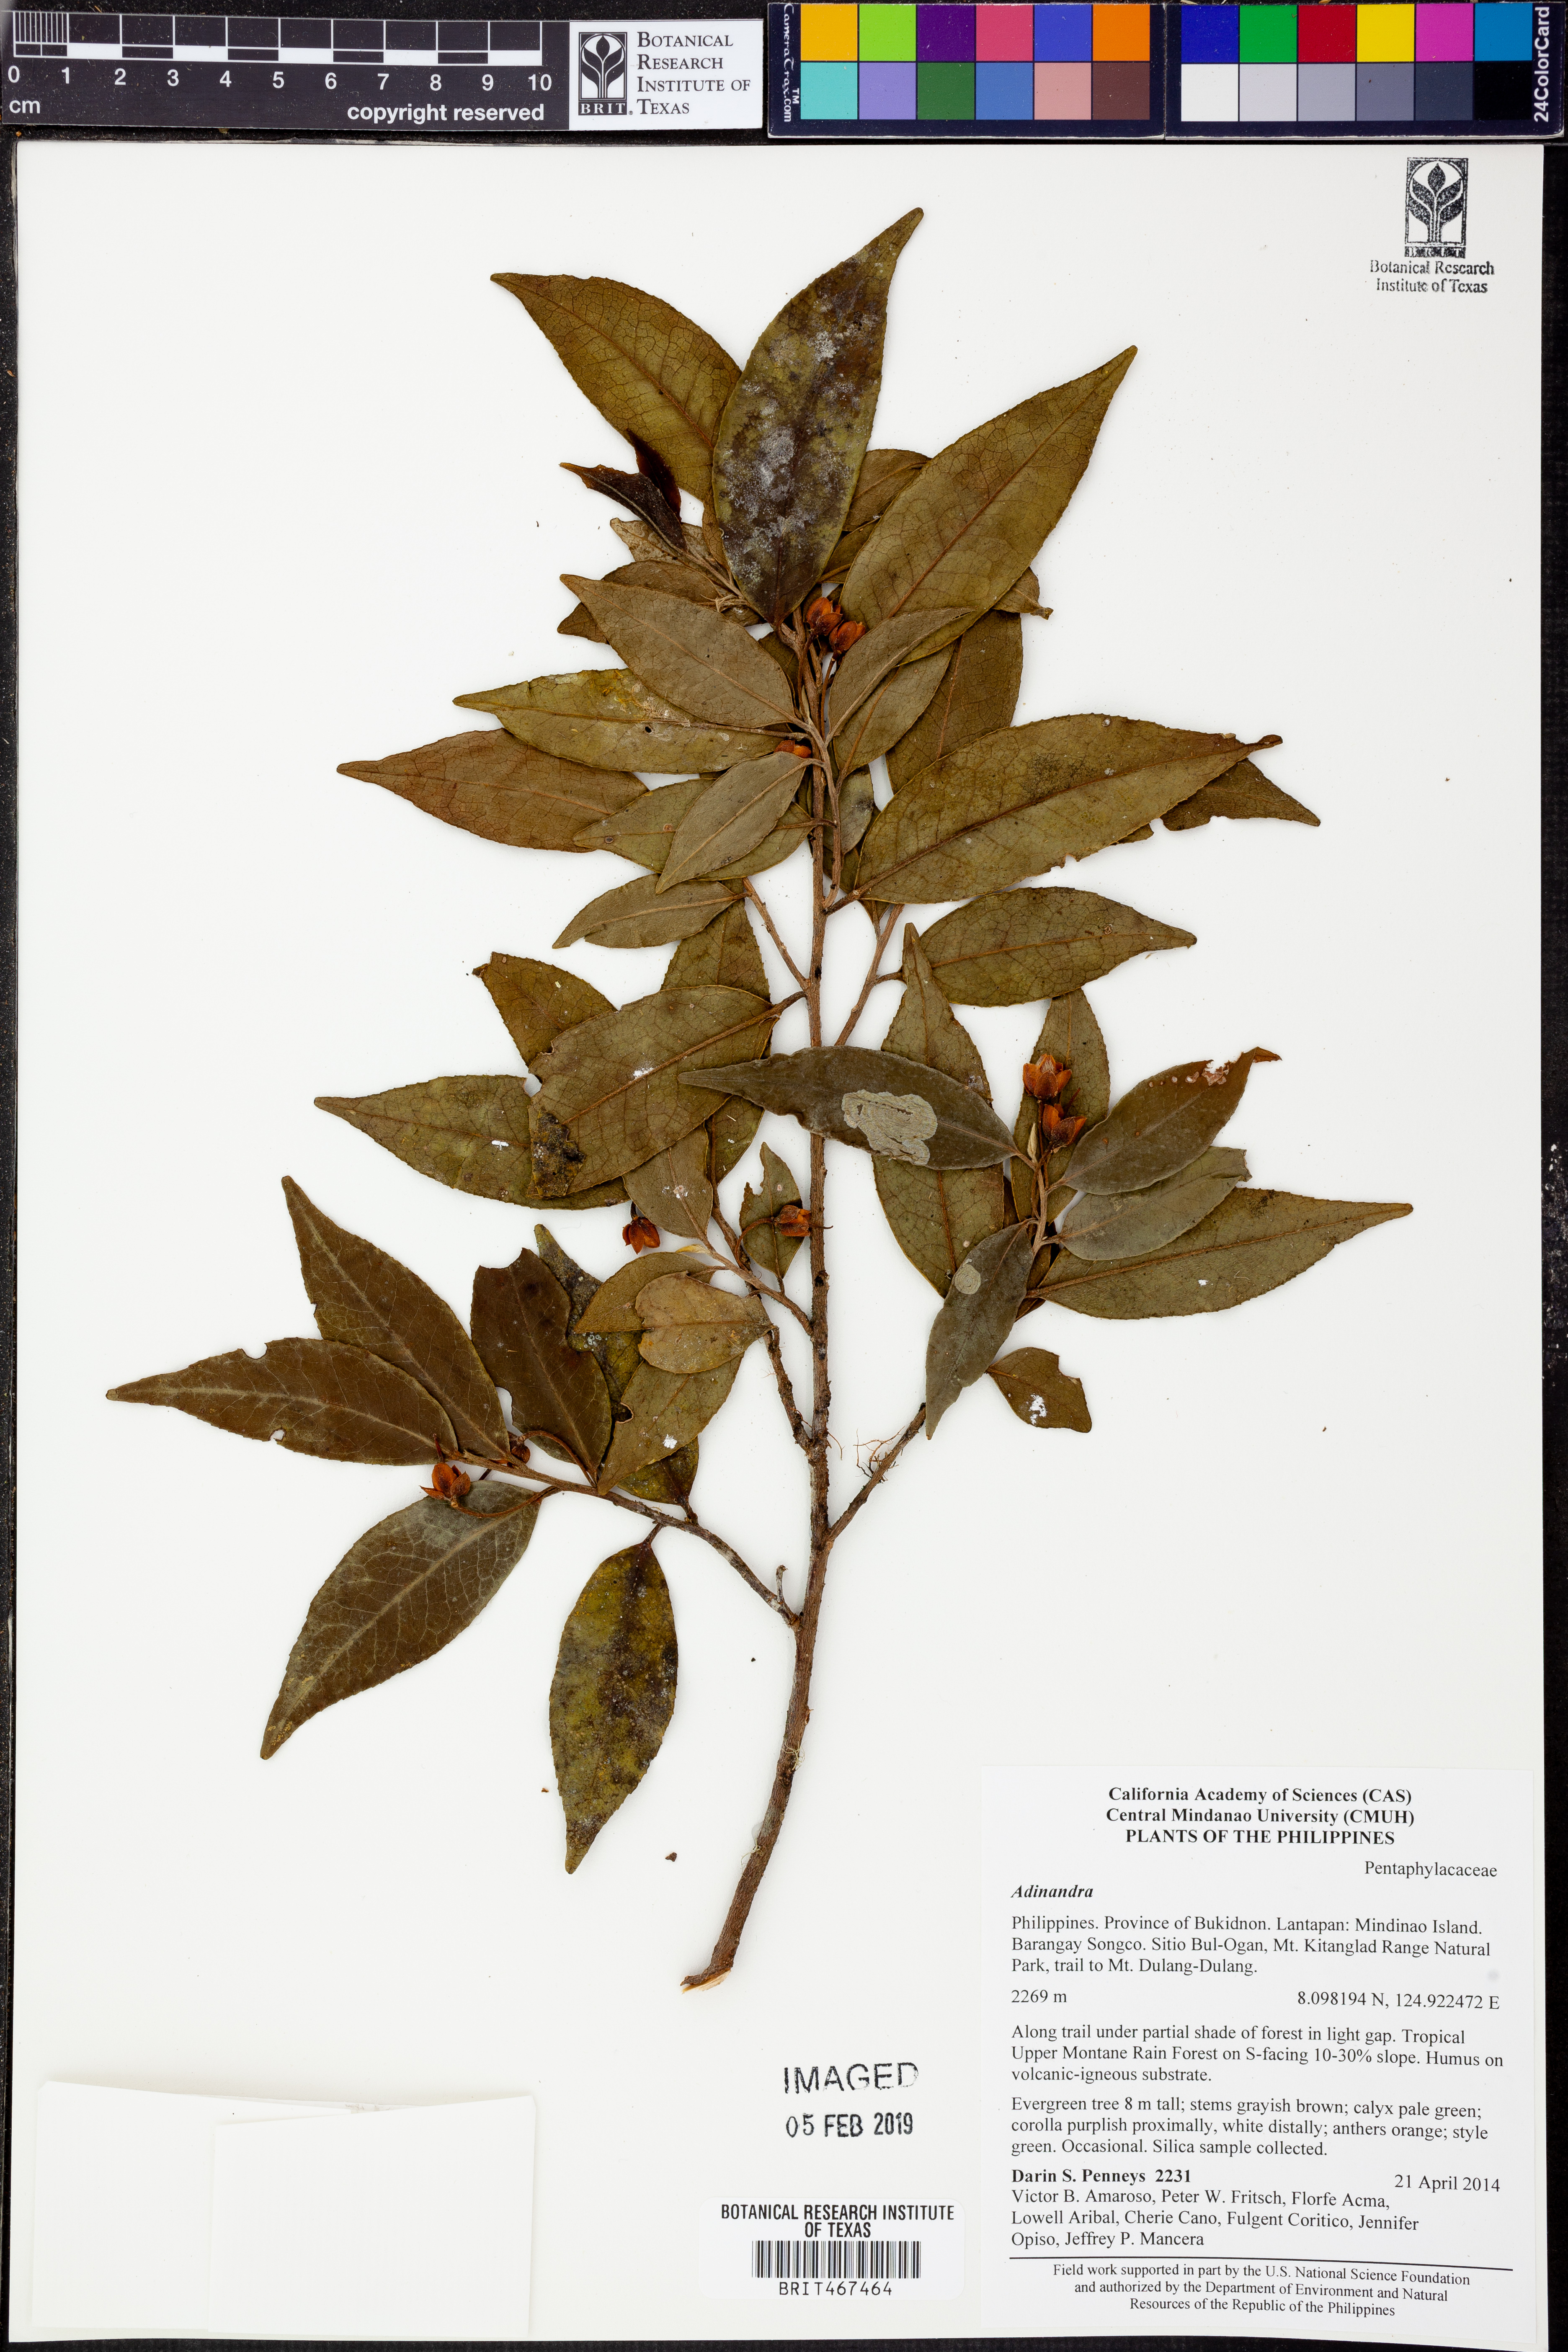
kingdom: Plantae
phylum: Tracheophyta
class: Magnoliopsida
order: Ericales
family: Pentaphylacaceae
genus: Adinandra
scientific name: Adinandra
